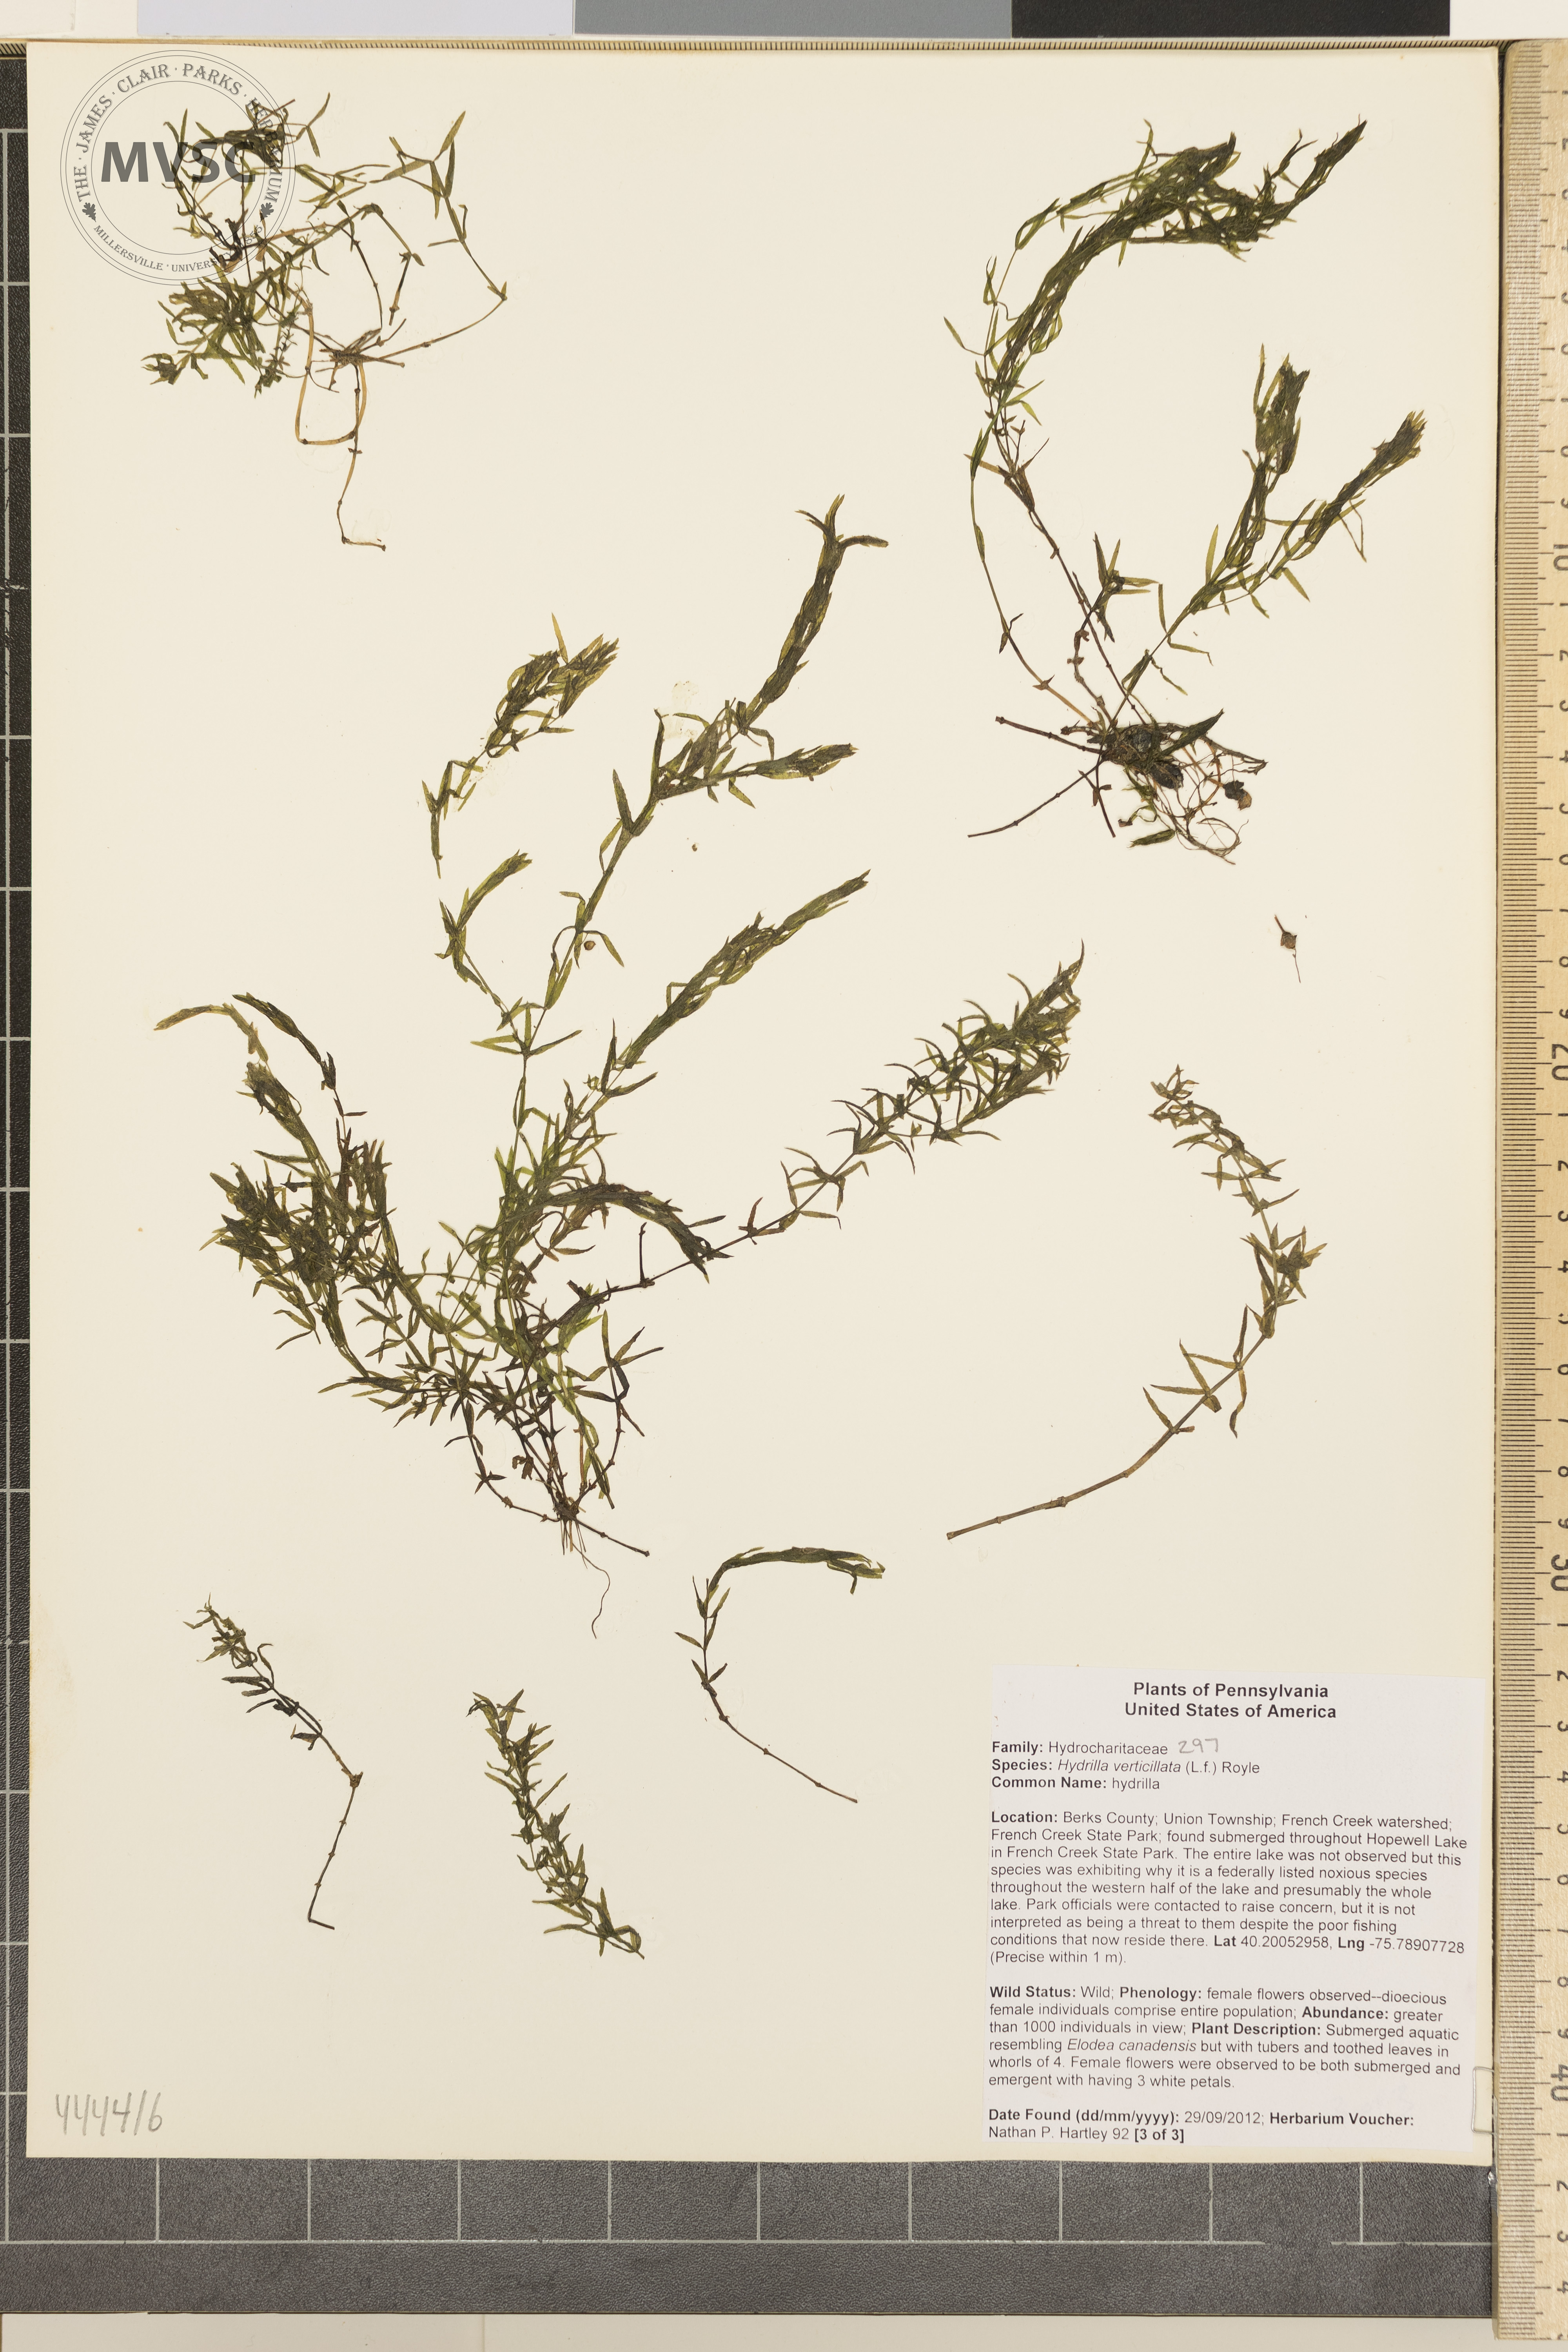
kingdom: Plantae
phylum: Tracheophyta
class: Liliopsida
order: Alismatales
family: Hydrocharitaceae
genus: Hydrilla
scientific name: Hydrilla verticillata
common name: Florida-elodea
